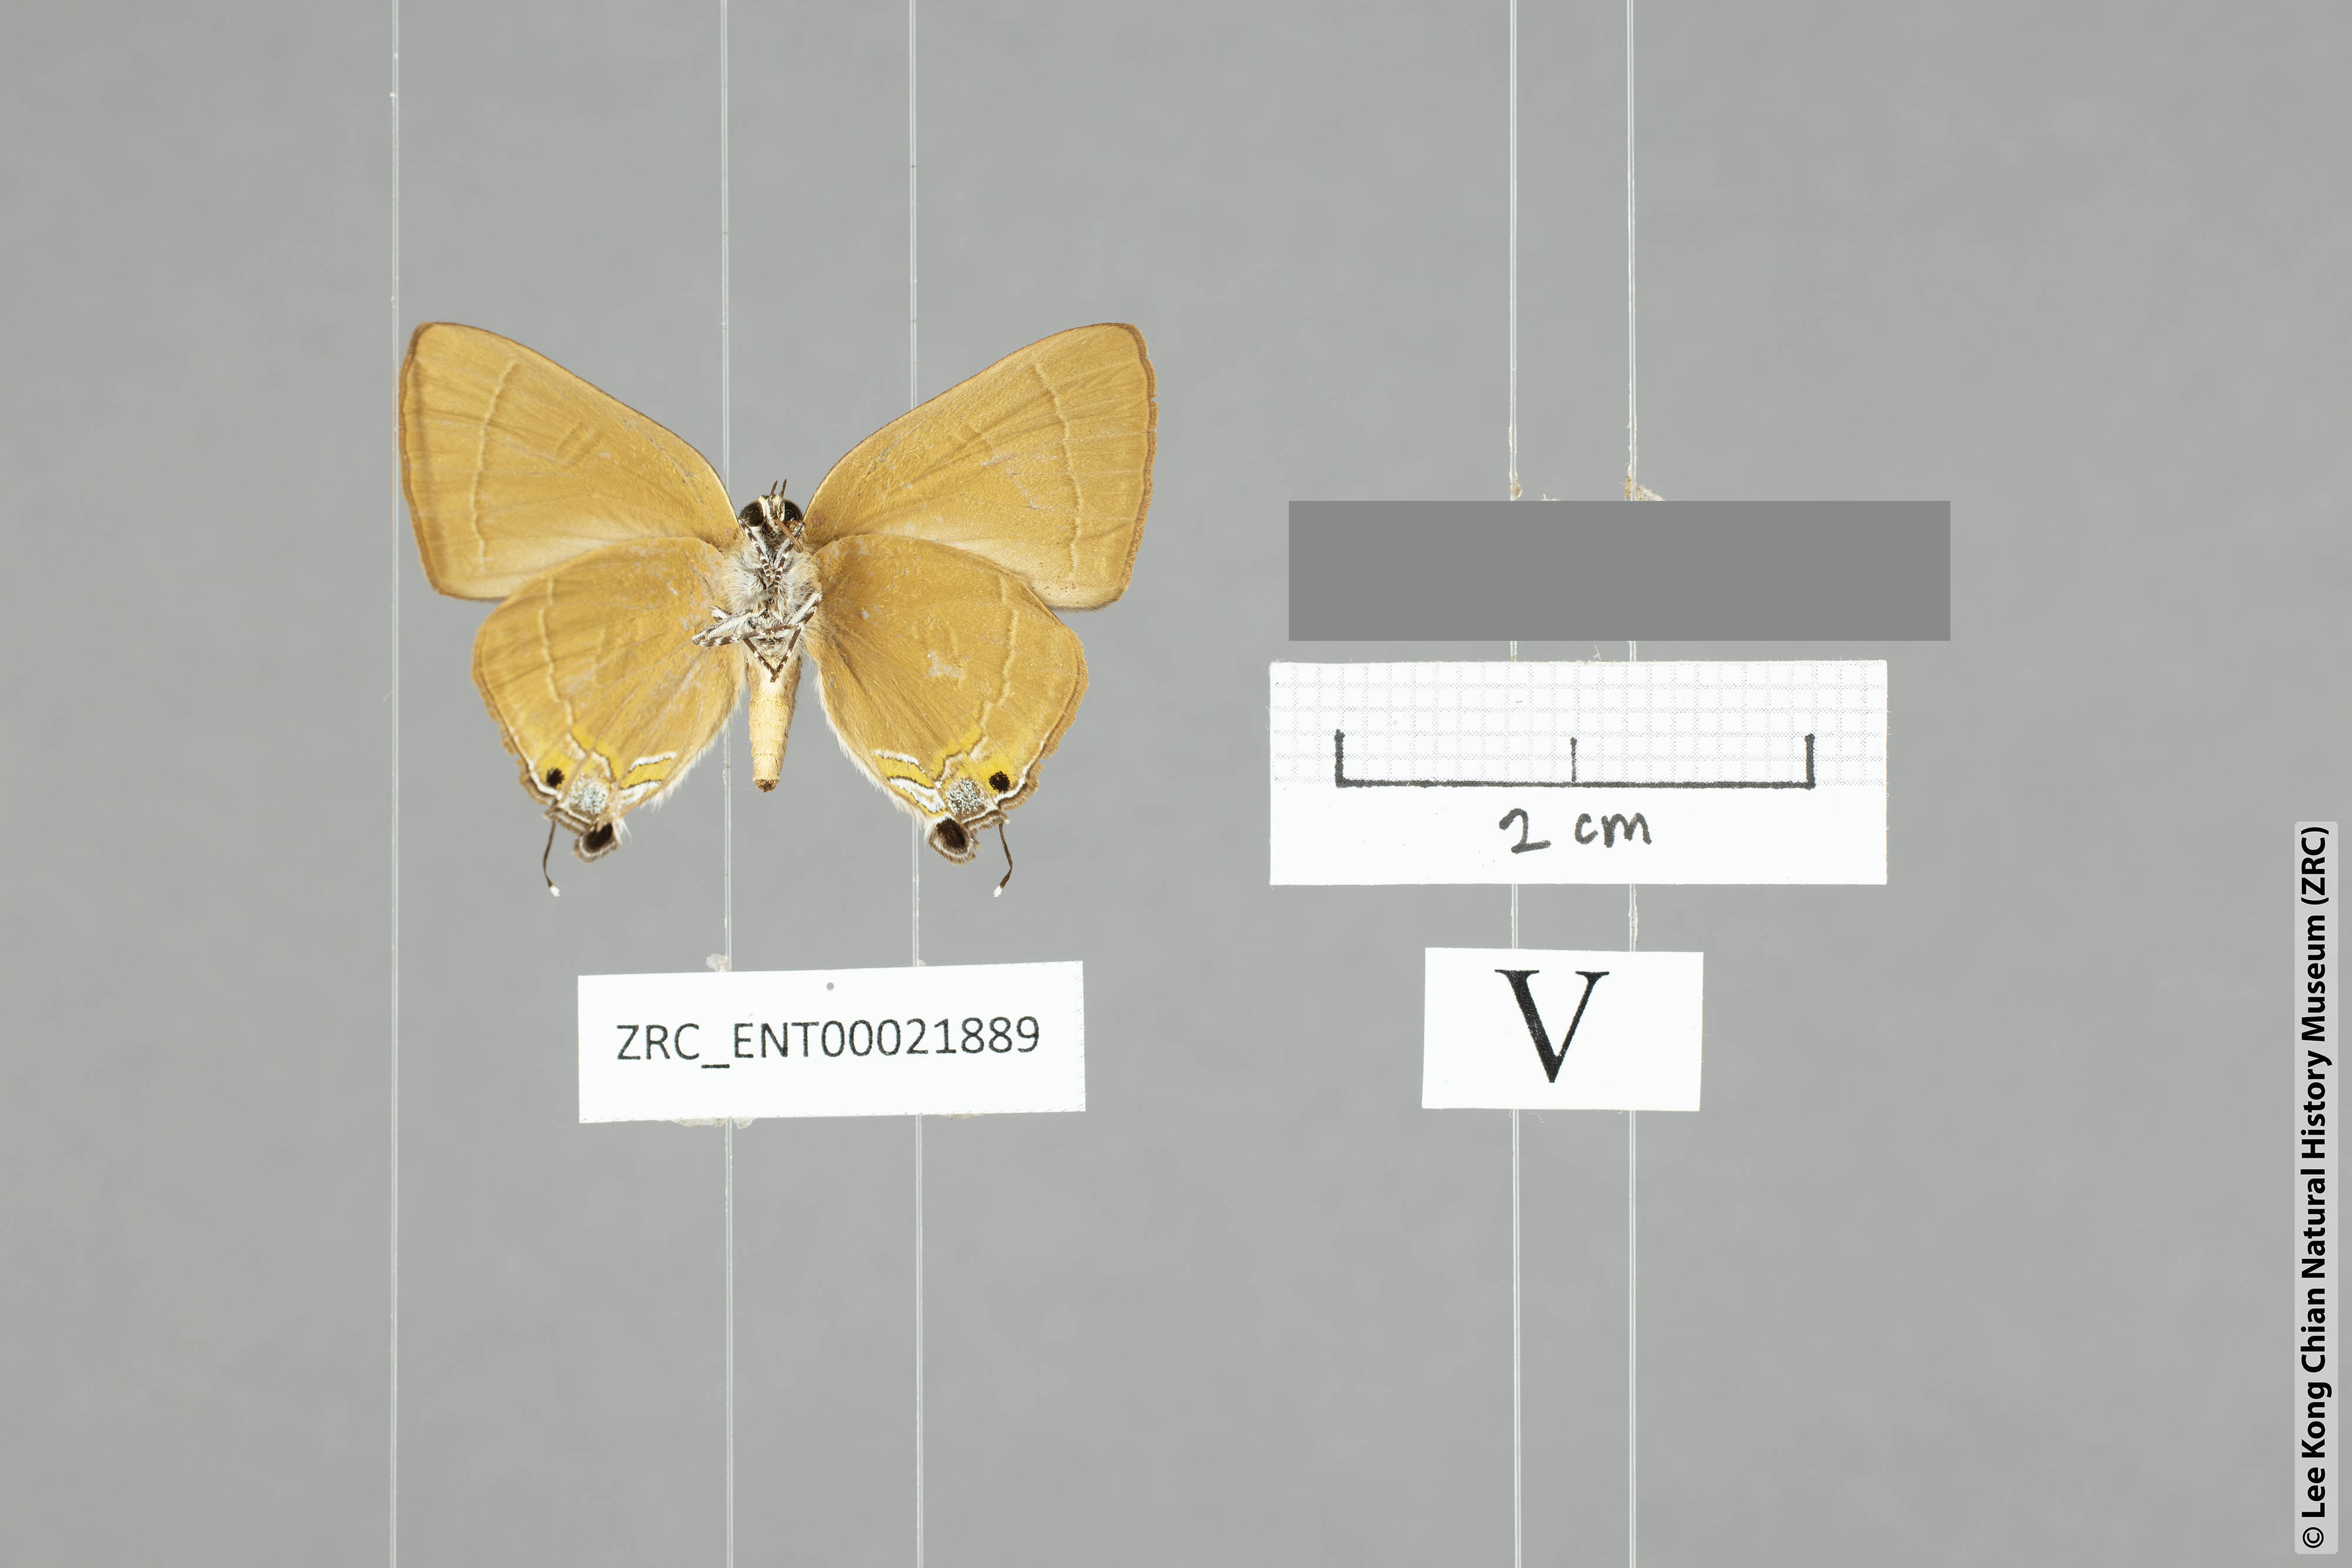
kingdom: Animalia
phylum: Arthropoda
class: Insecta
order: Lepidoptera
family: Lycaenidae
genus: Rapala
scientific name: Rapala rhodopis
